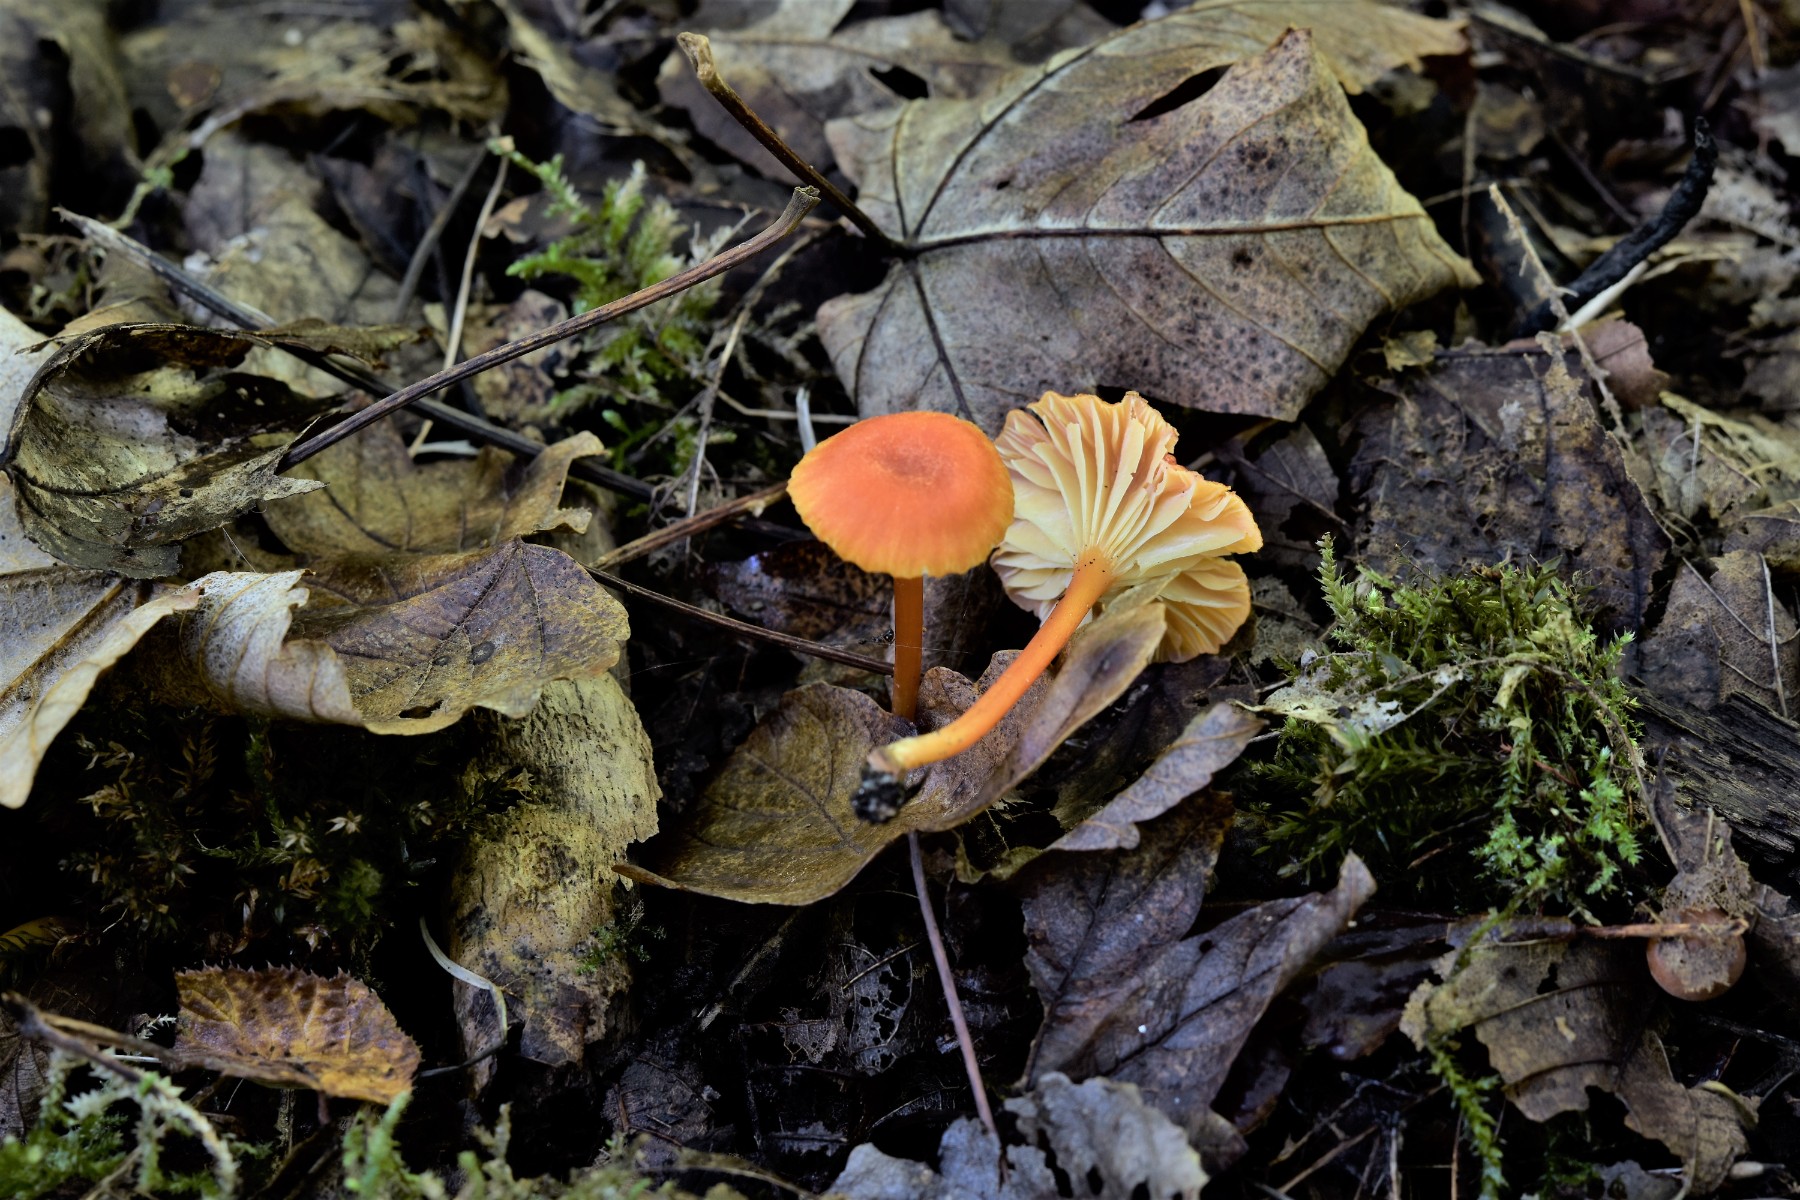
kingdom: Fungi
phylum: Basidiomycota
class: Agaricomycetes
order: Agaricales
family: Hygrophoraceae
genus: Hygrocybe
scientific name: Hygrocybe cantharellus
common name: kantarel-vokshat
